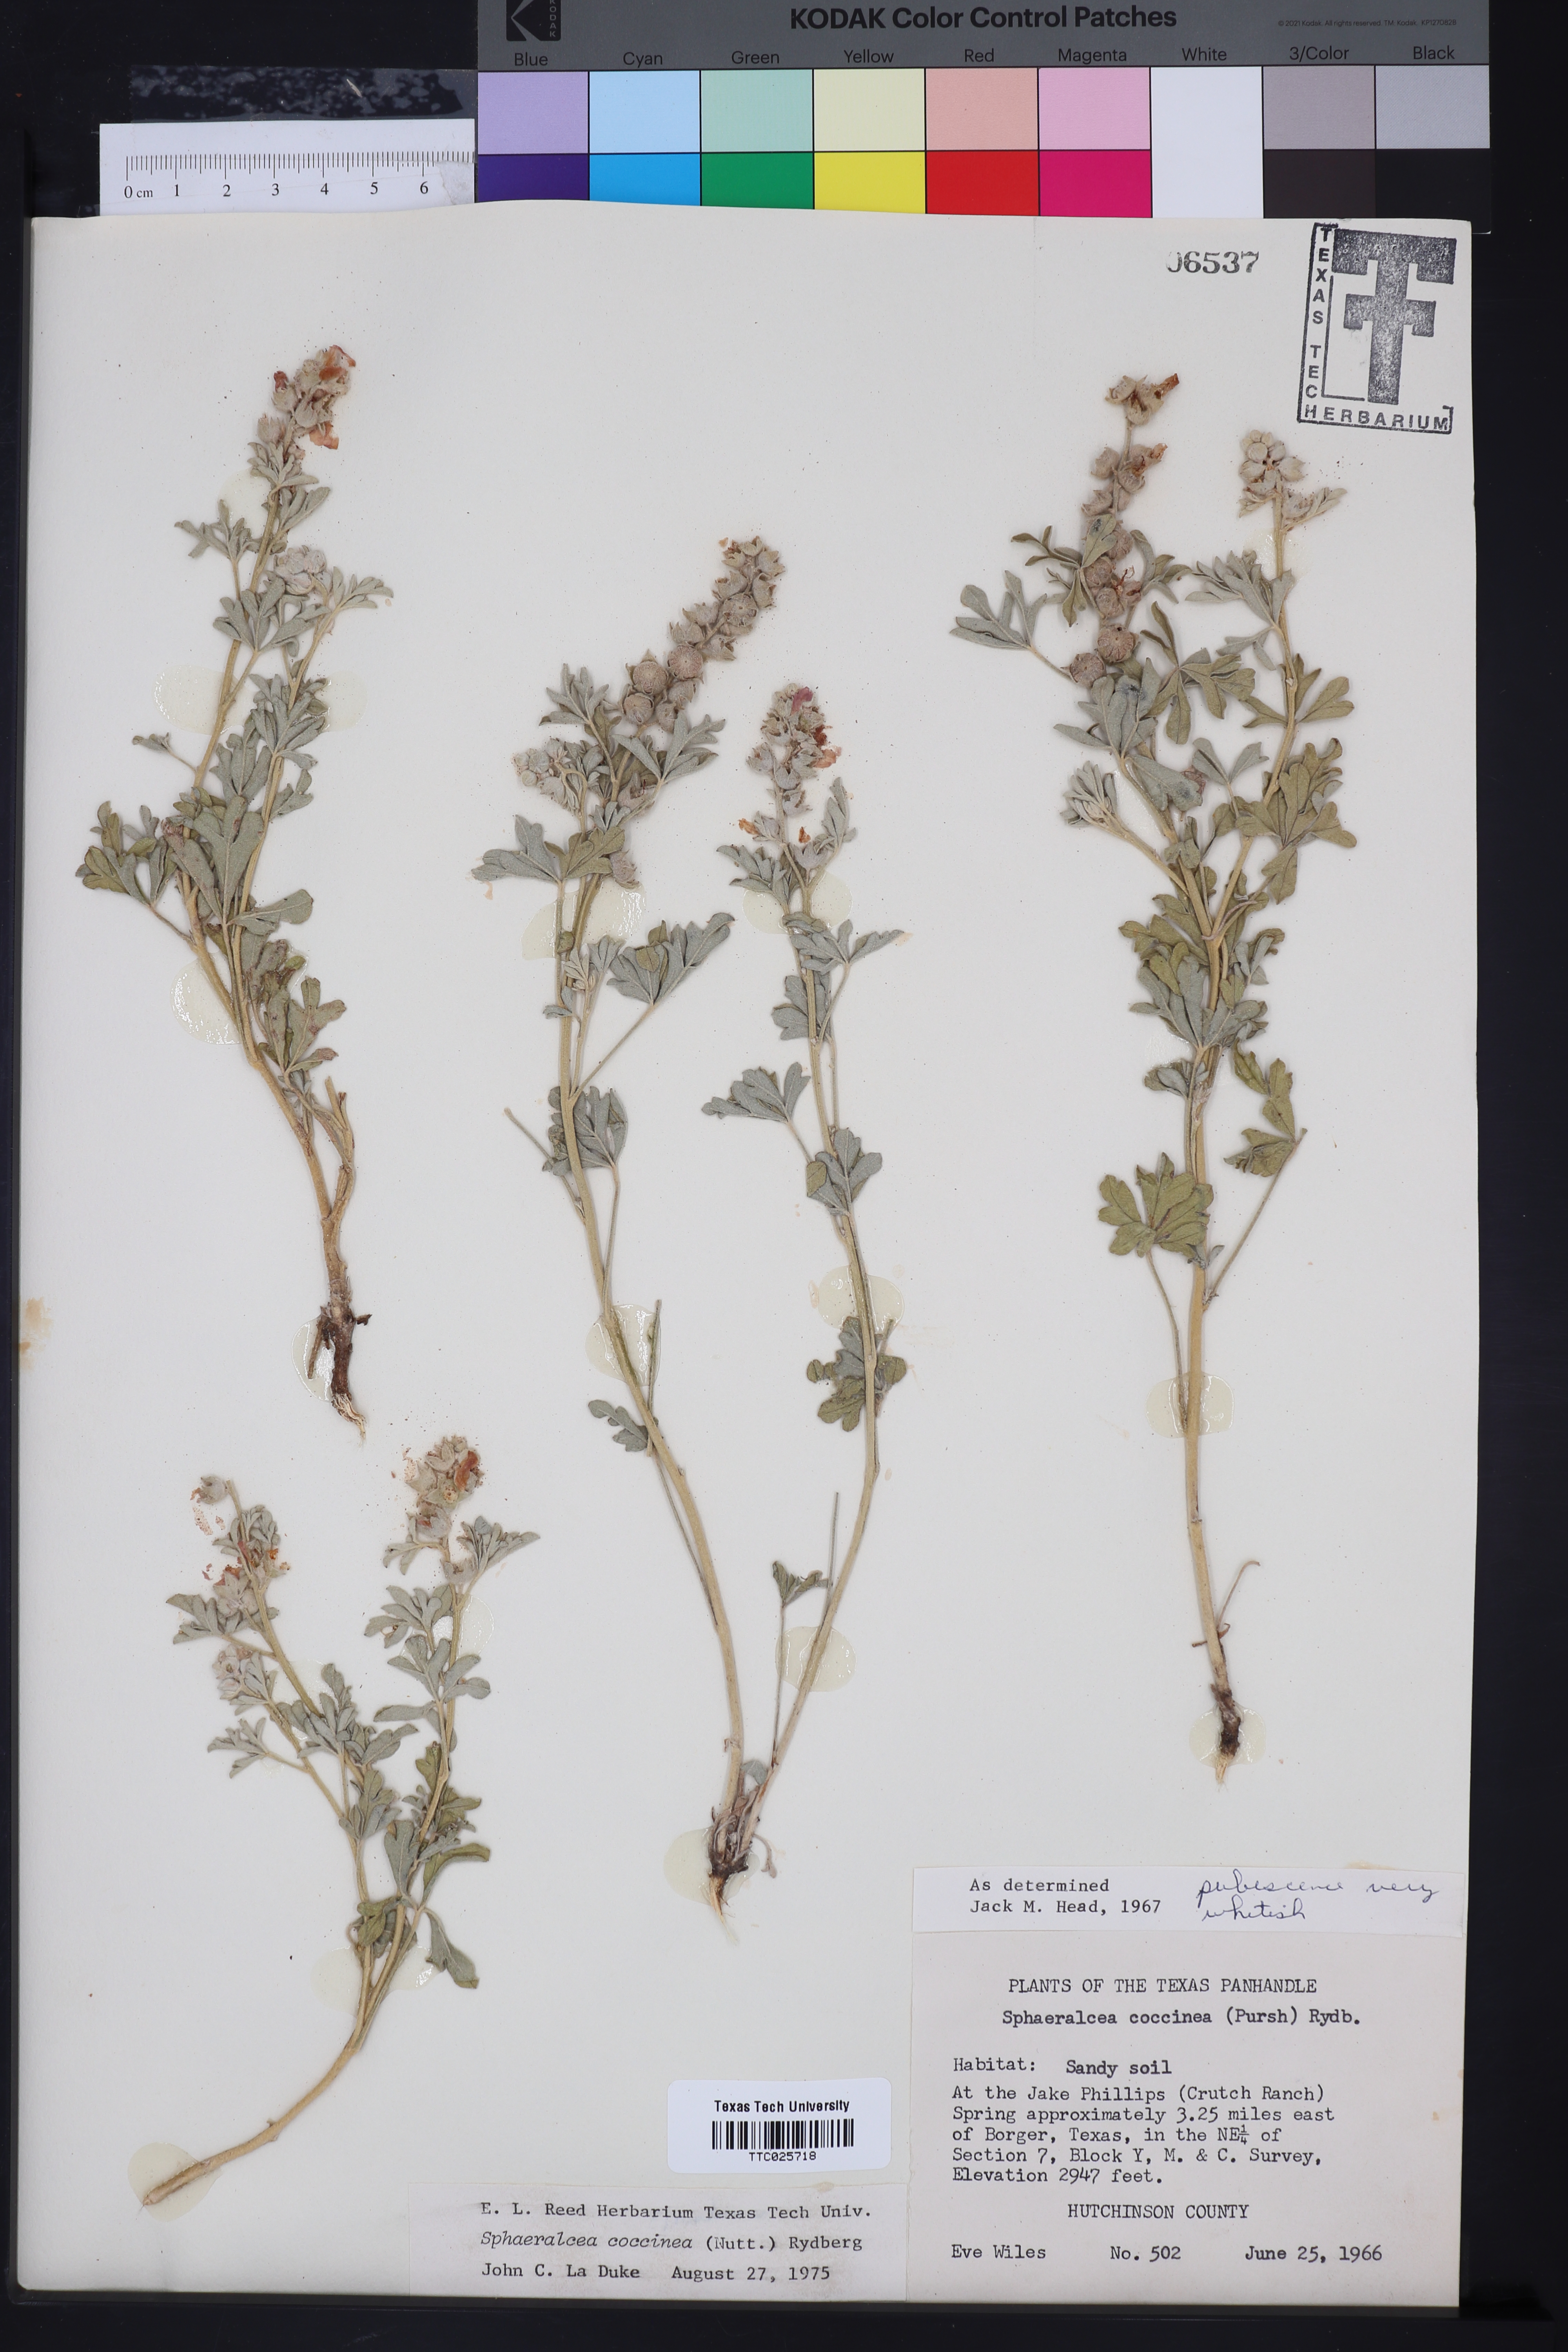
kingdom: Plantae
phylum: Tracheophyta
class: Magnoliopsida
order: Malvales
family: Malvaceae
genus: Sphaeralcea
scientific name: Sphaeralcea coccinea
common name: Moss-rose
